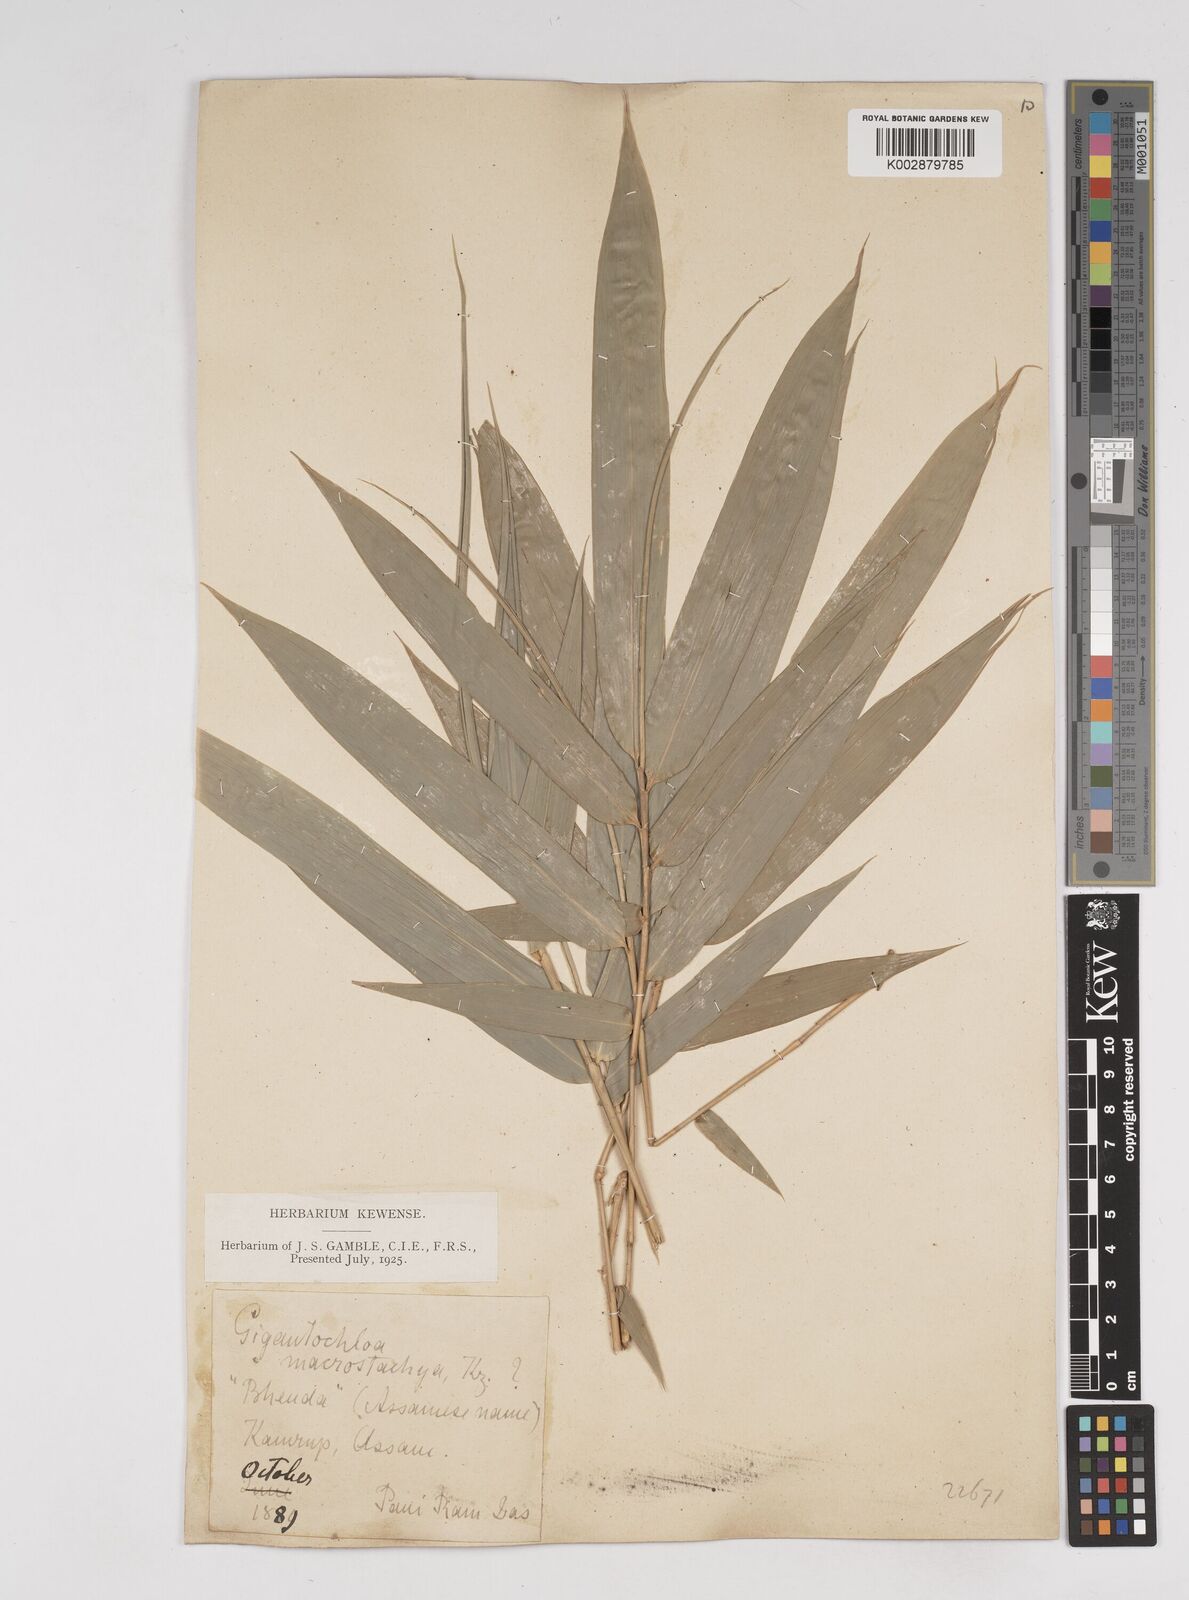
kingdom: Plantae
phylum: Tracheophyta
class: Liliopsida
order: Poales
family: Poaceae
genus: Gigantochloa
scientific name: Gigantochloa macrostachya
